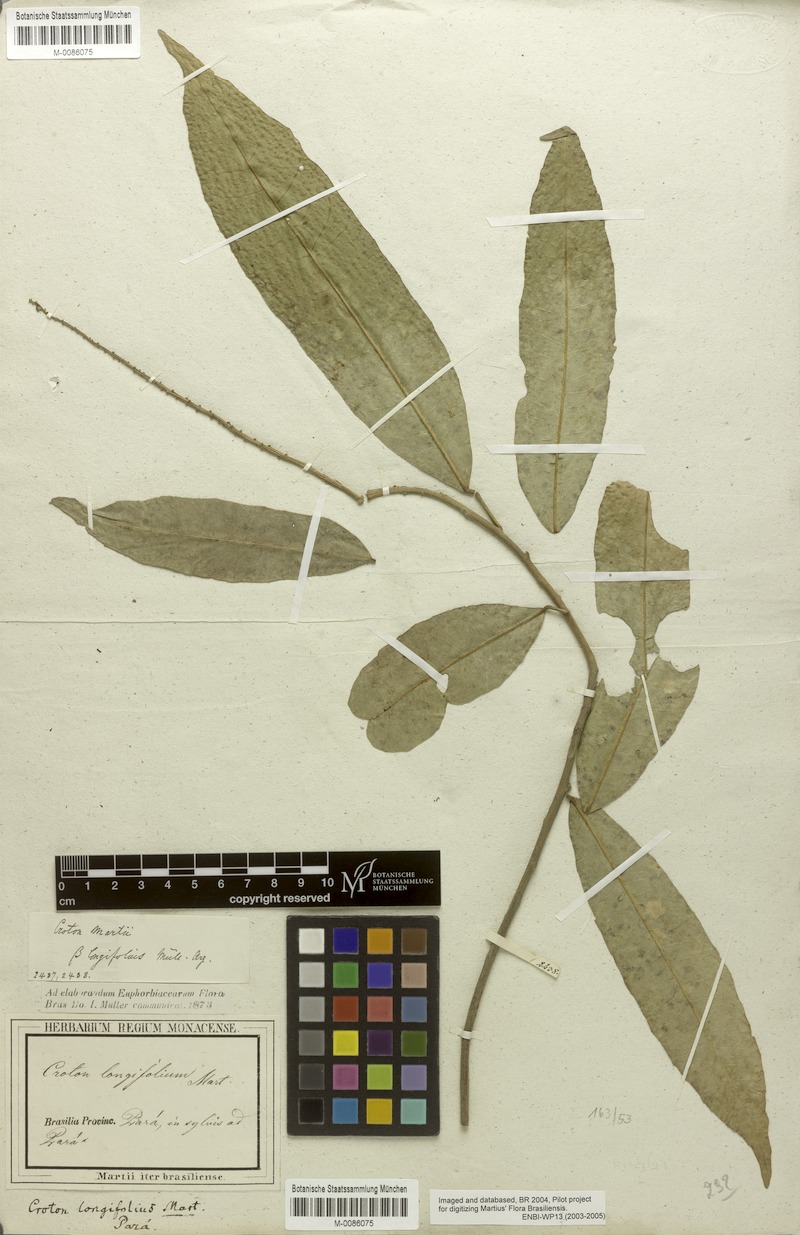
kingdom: Plantae
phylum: Tracheophyta
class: Magnoliopsida
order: Malpighiales
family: Euphorbiaceae
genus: Croton
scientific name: Croton cuneatus
